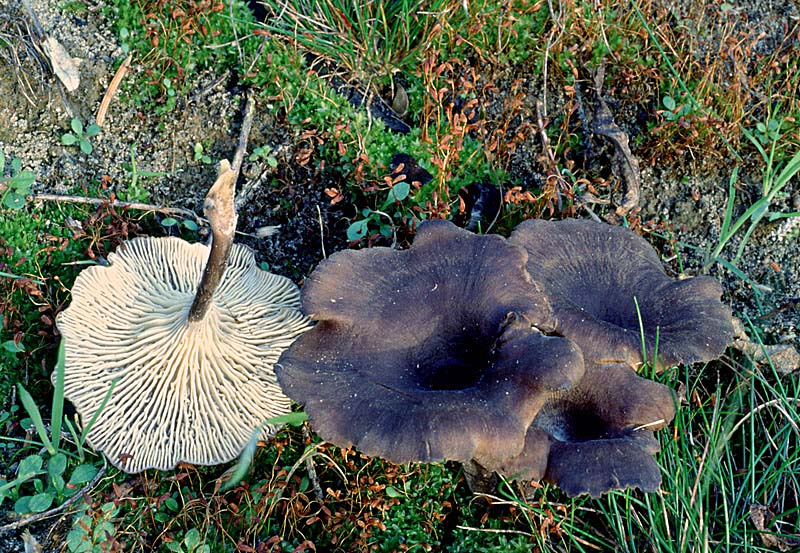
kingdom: Fungi
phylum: Basidiomycota
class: Agaricomycetes
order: Polyporales
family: Polyporaceae
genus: Faerberia
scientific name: Faerberia carbonaria
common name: kulkantarel
